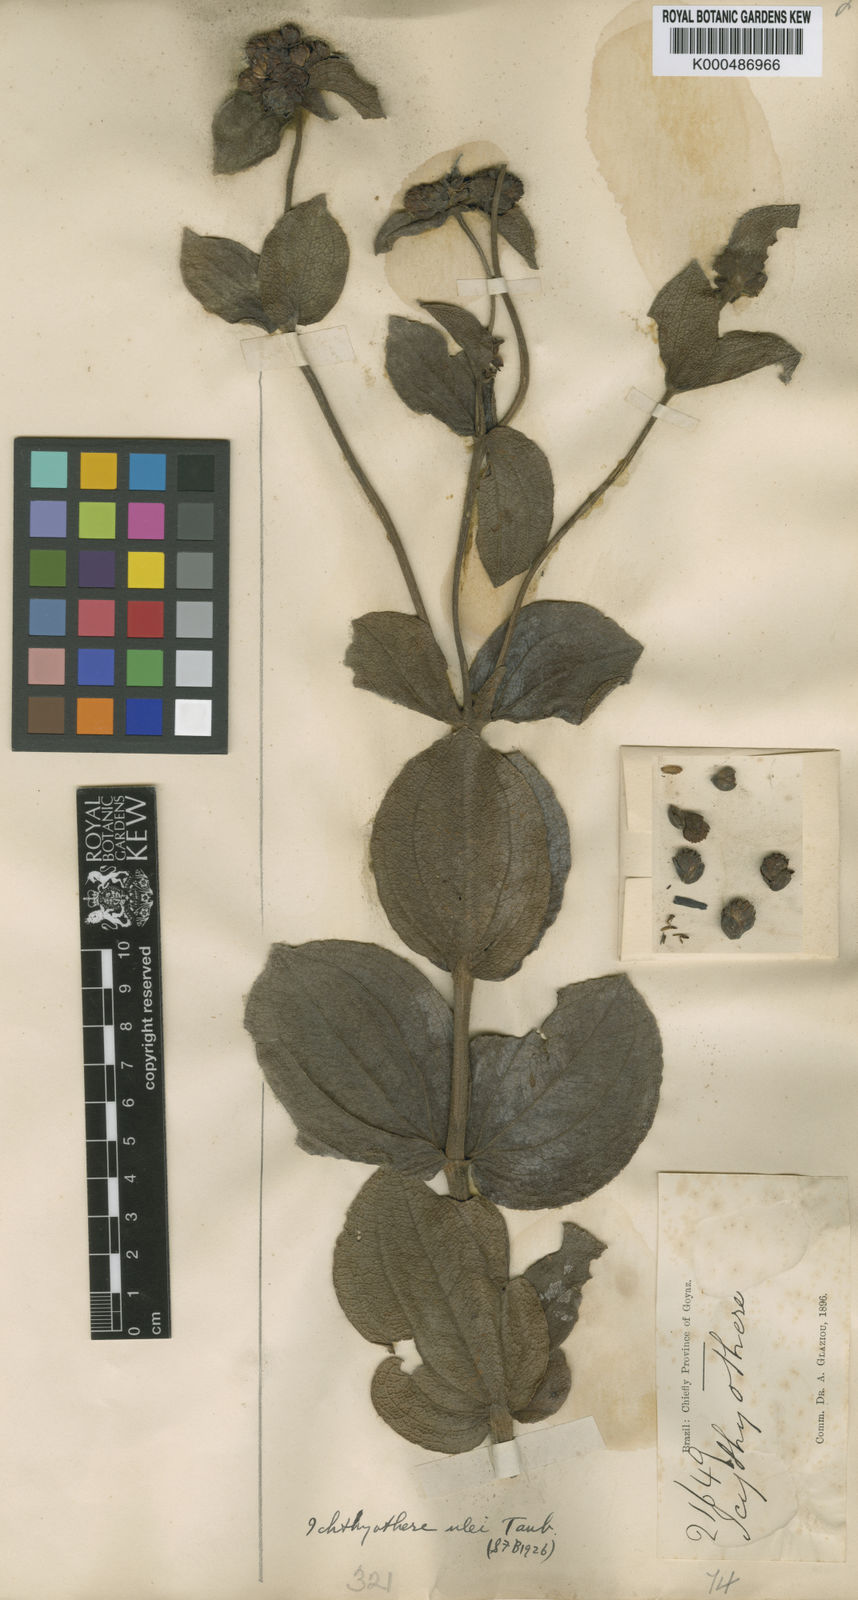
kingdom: Plantae
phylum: Tracheophyta
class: Magnoliopsida
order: Asterales
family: Asteraceae
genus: Ichthyothere
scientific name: Ichthyothere ulei
